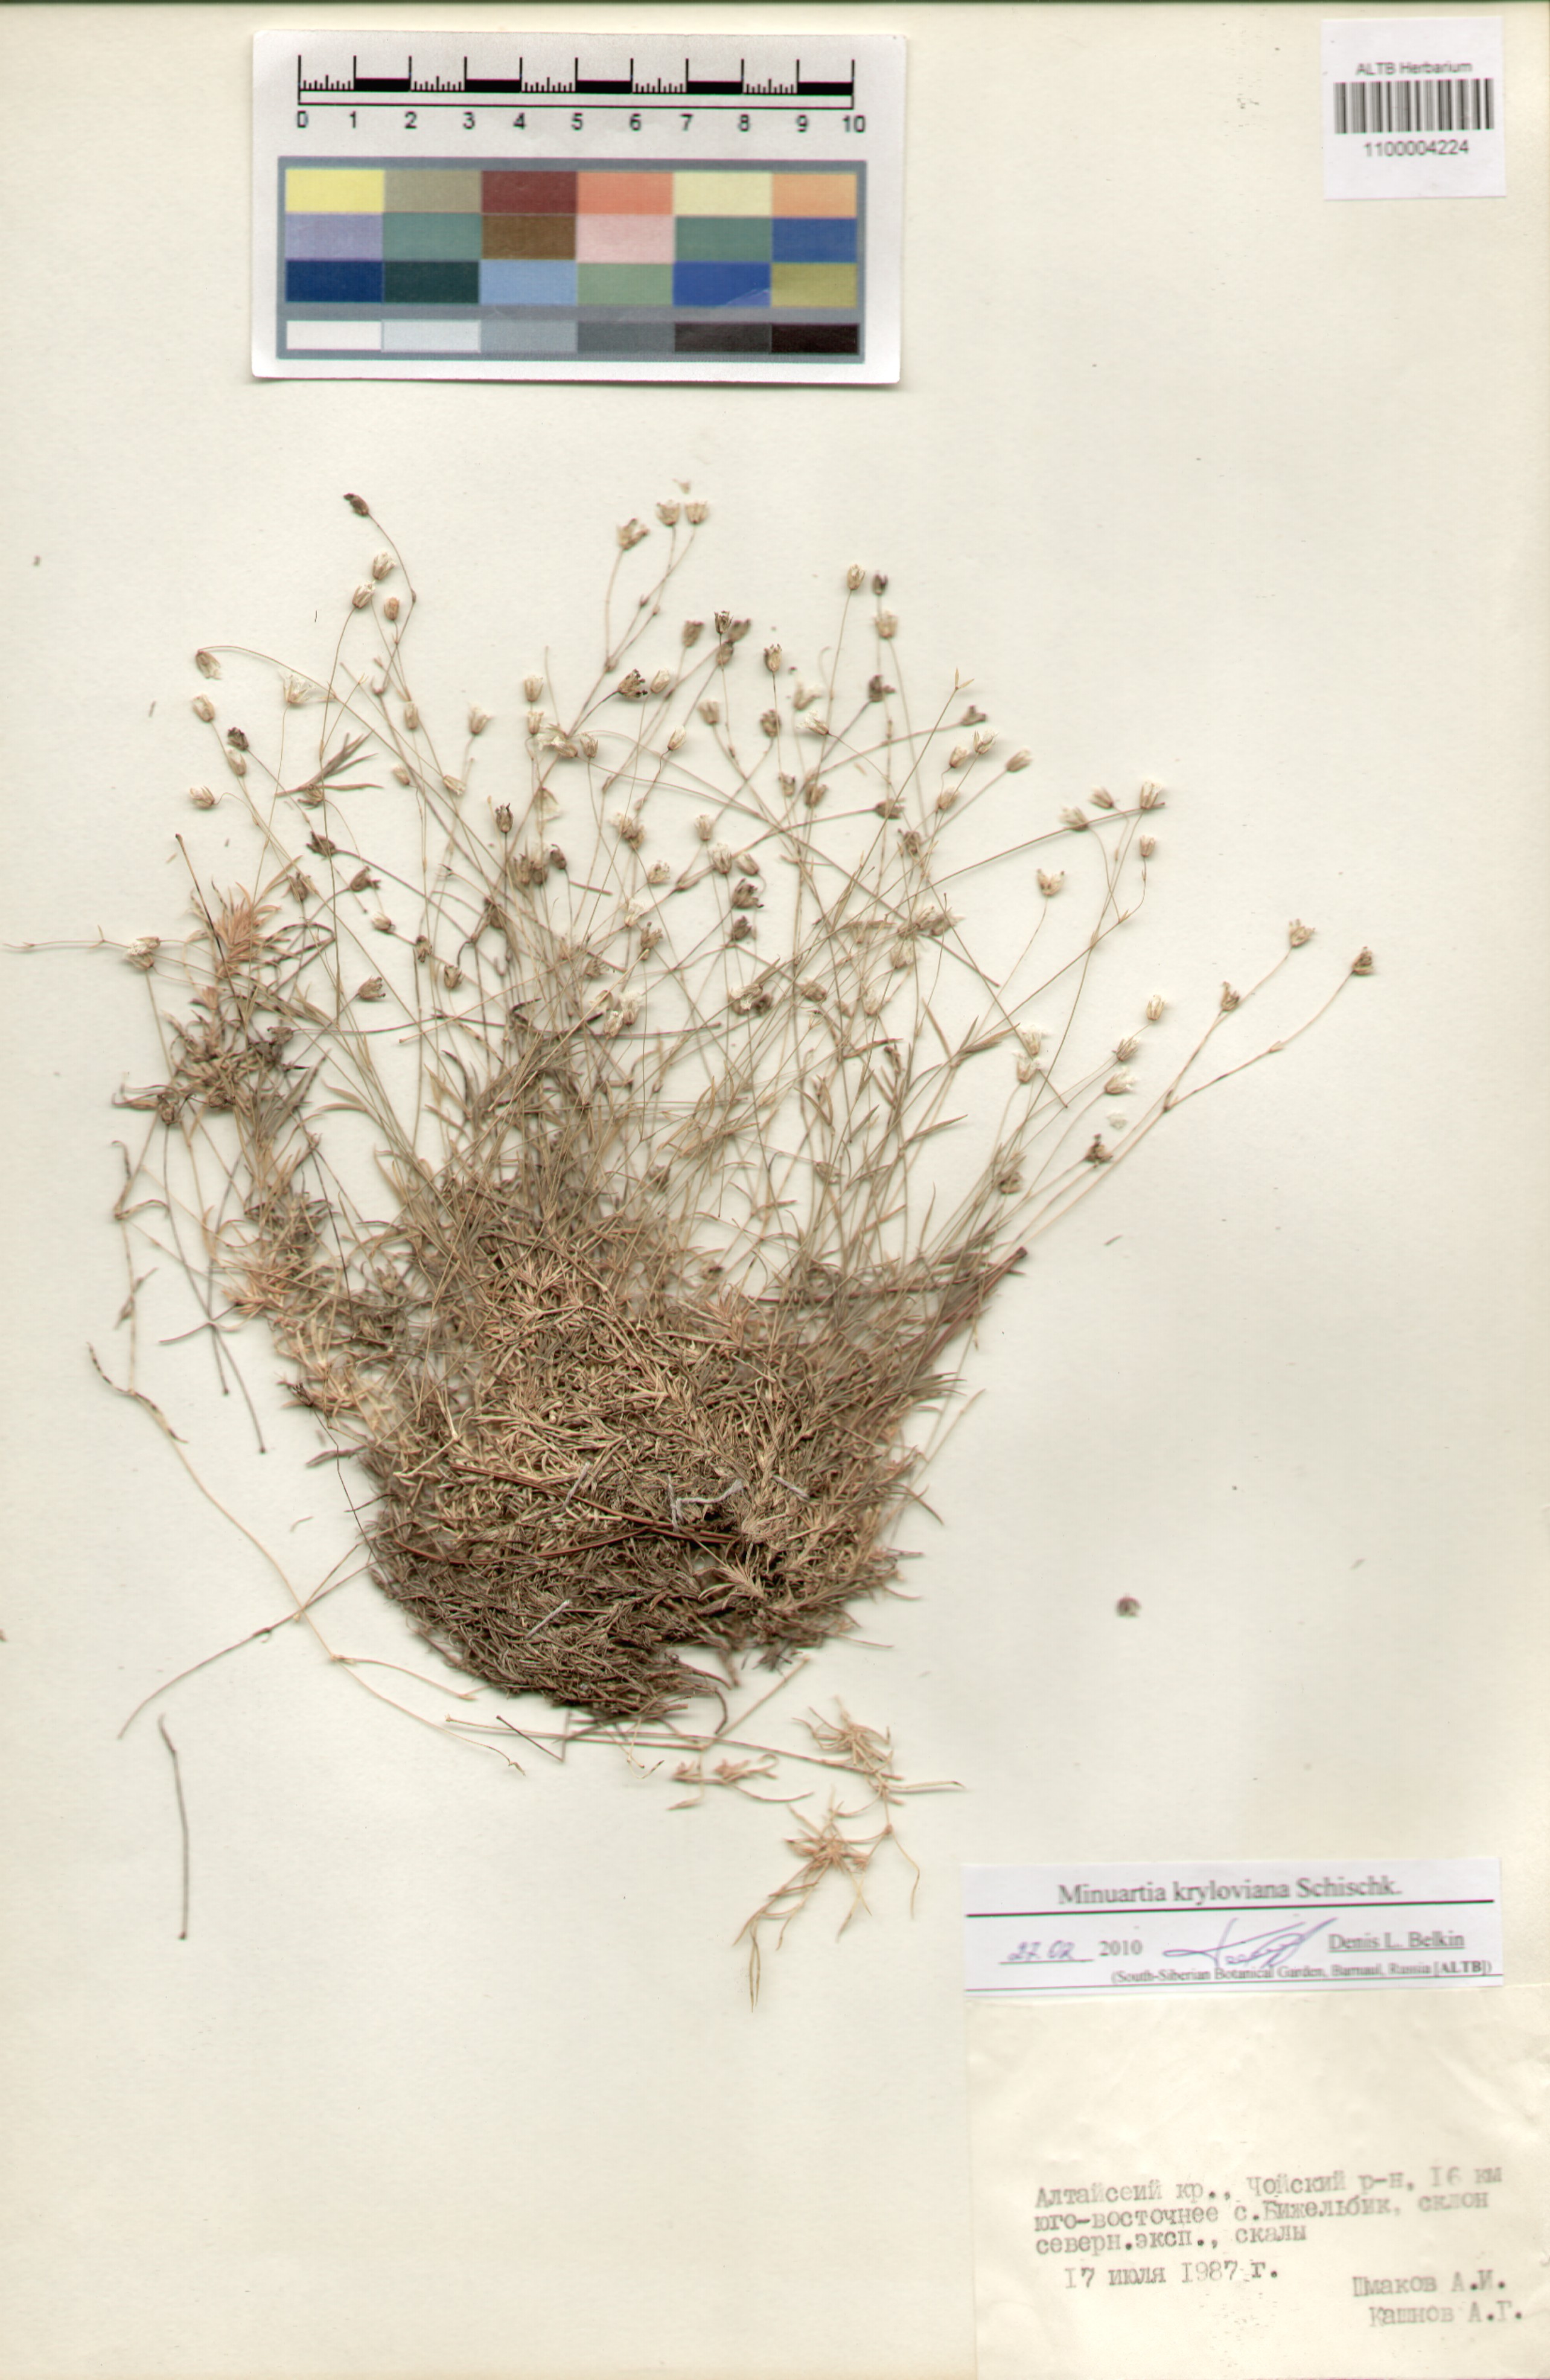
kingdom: Plantae
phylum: Tracheophyta
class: Magnoliopsida
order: Caryophyllales
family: Caryophyllaceae
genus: Sabulina
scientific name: Sabulina verna
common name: Spring sandwort
